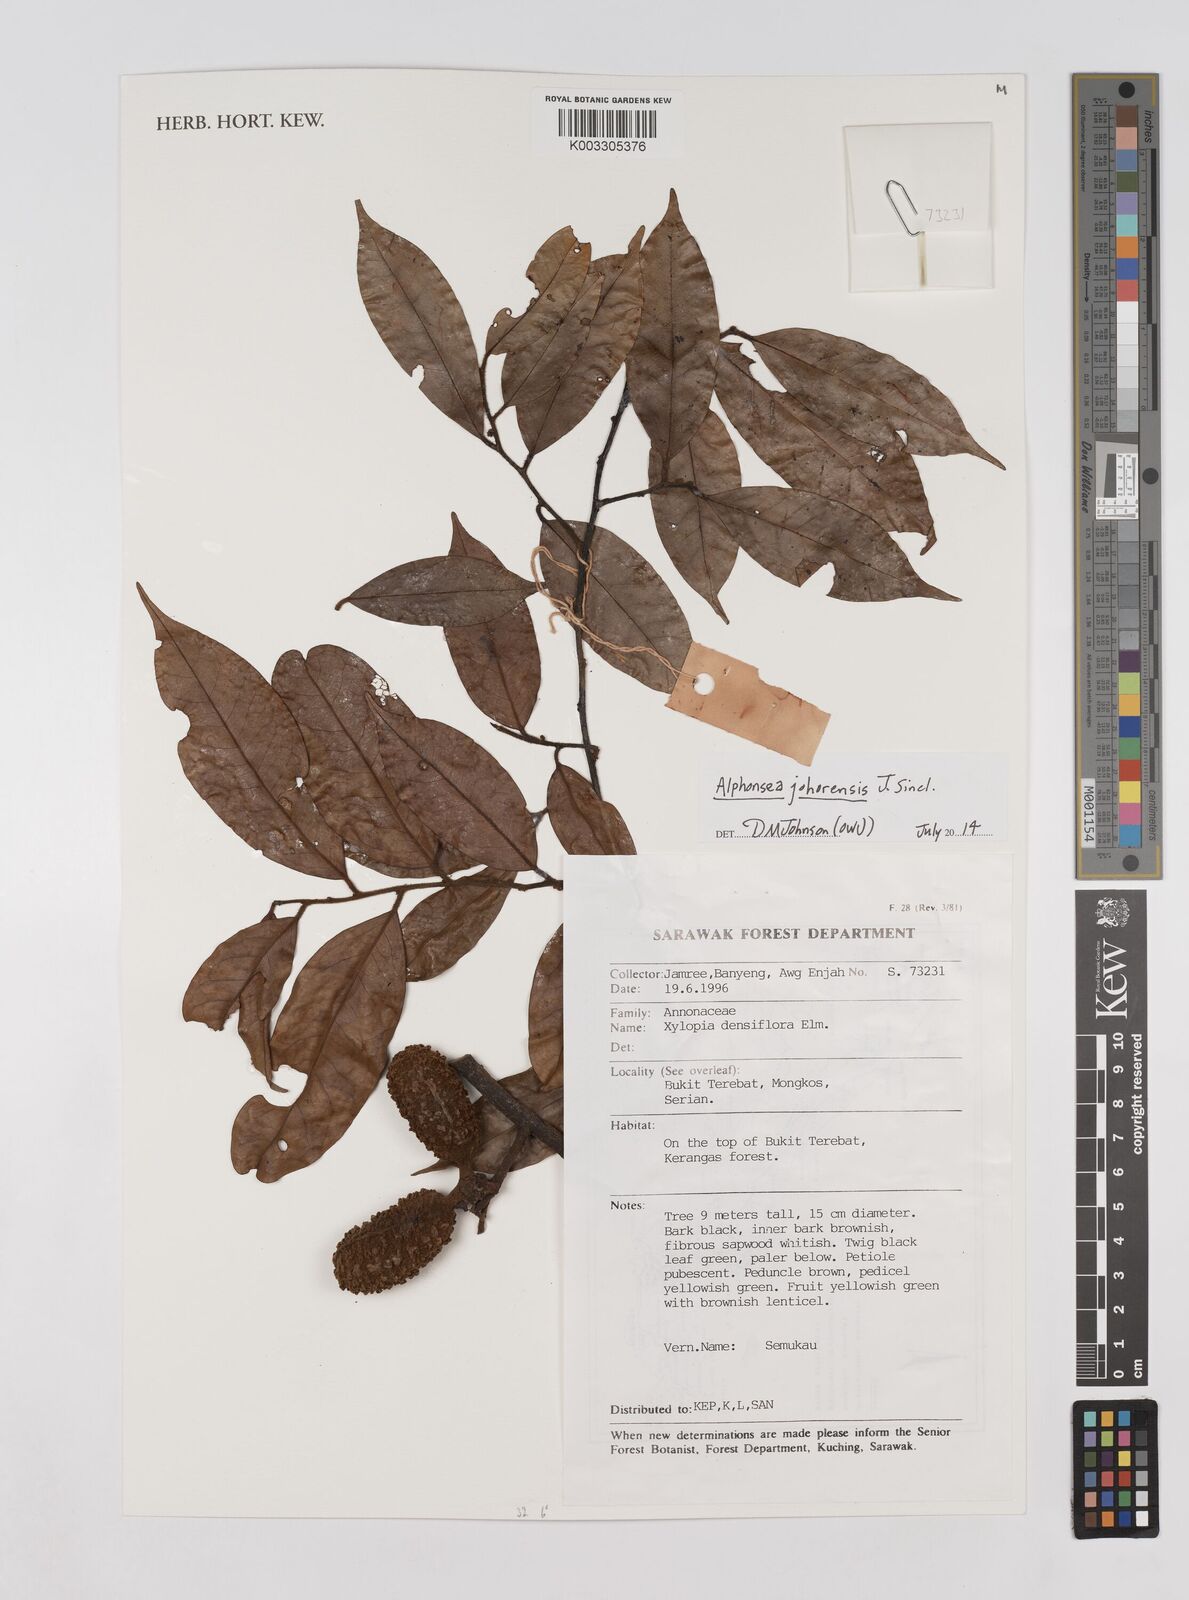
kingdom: Plantae
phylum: Tracheophyta
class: Magnoliopsida
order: Magnoliales
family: Annonaceae
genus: Alphonsea
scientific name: Alphonsea johorensis
